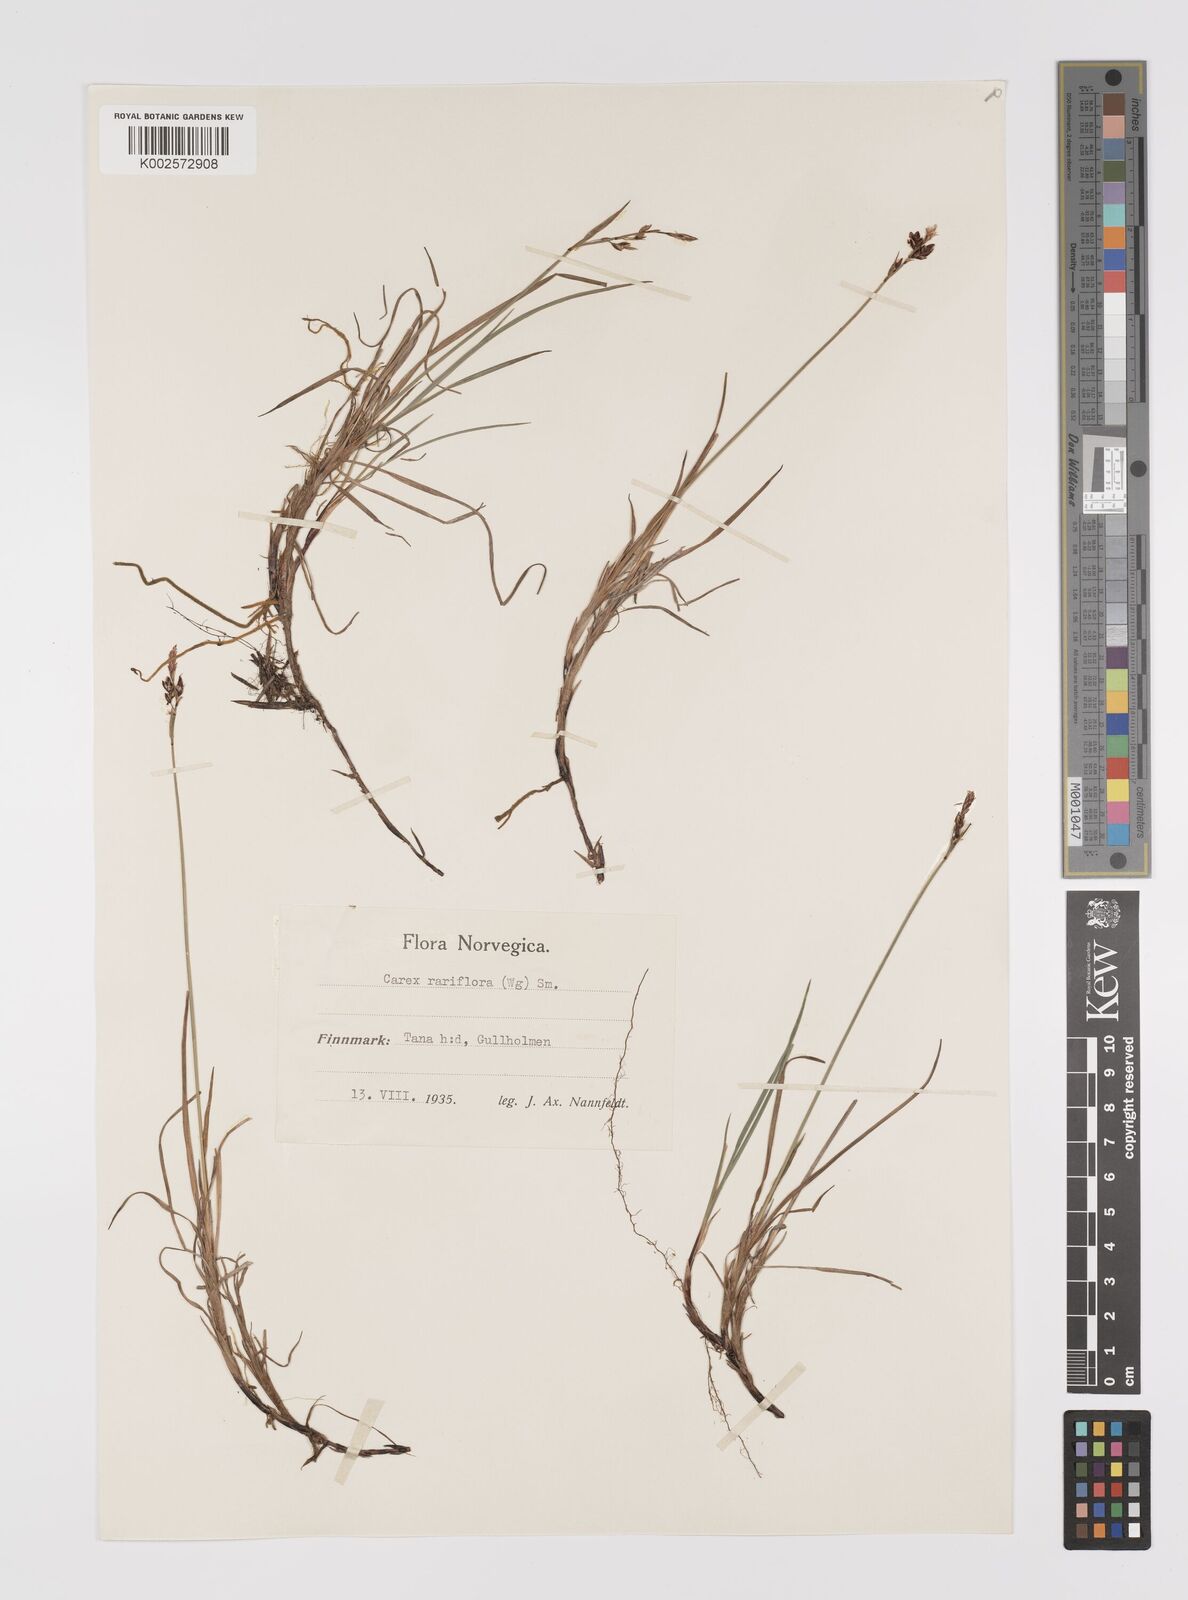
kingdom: Plantae
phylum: Tracheophyta
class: Liliopsida
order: Poales
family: Cyperaceae
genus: Carex
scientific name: Carex rariflora
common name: Loose-flowered alpine sedge
